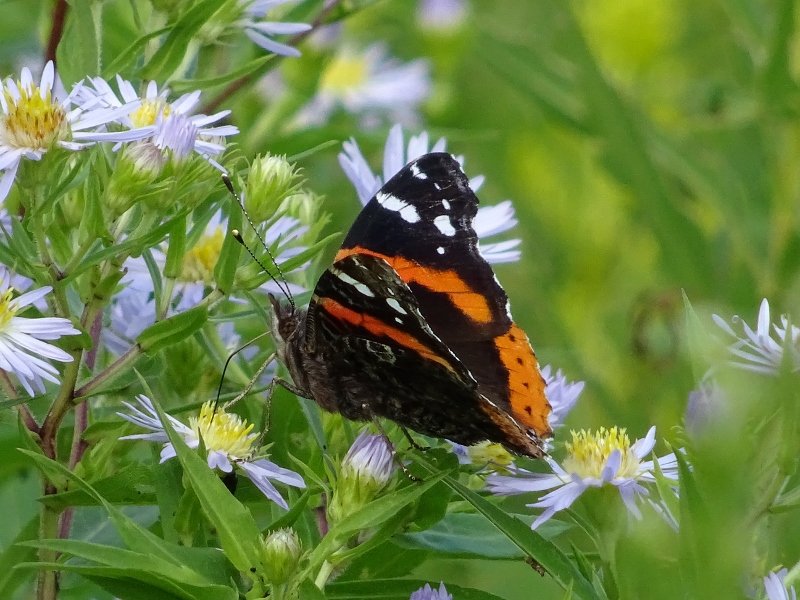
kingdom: Animalia
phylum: Arthropoda
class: Insecta
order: Lepidoptera
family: Nymphalidae
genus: Vanessa
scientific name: Vanessa atalanta
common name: Red Admiral
